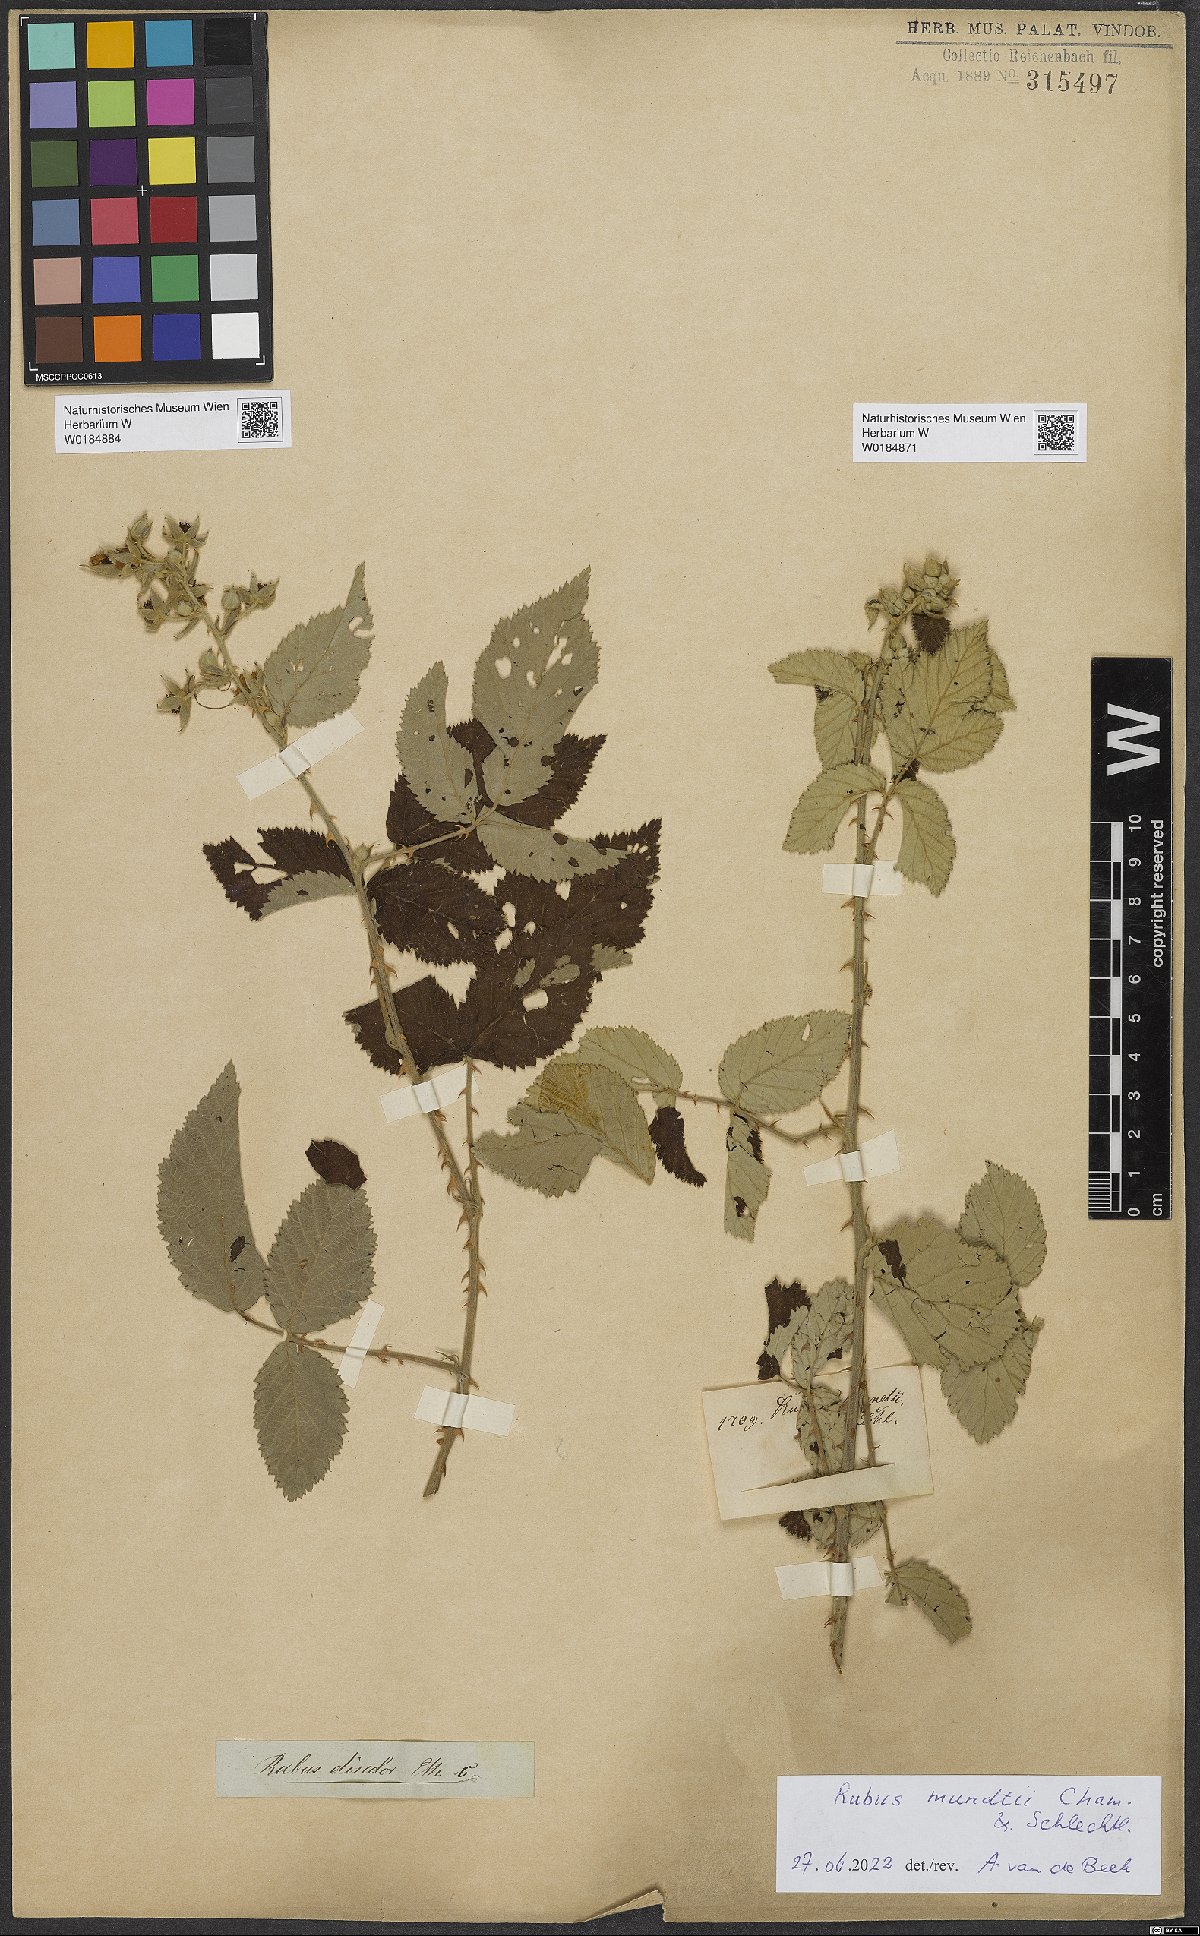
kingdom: Plantae
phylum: Tracheophyta
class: Magnoliopsida
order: Rosales
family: Rosaceae
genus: Rubus
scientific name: Rubus rigidus
